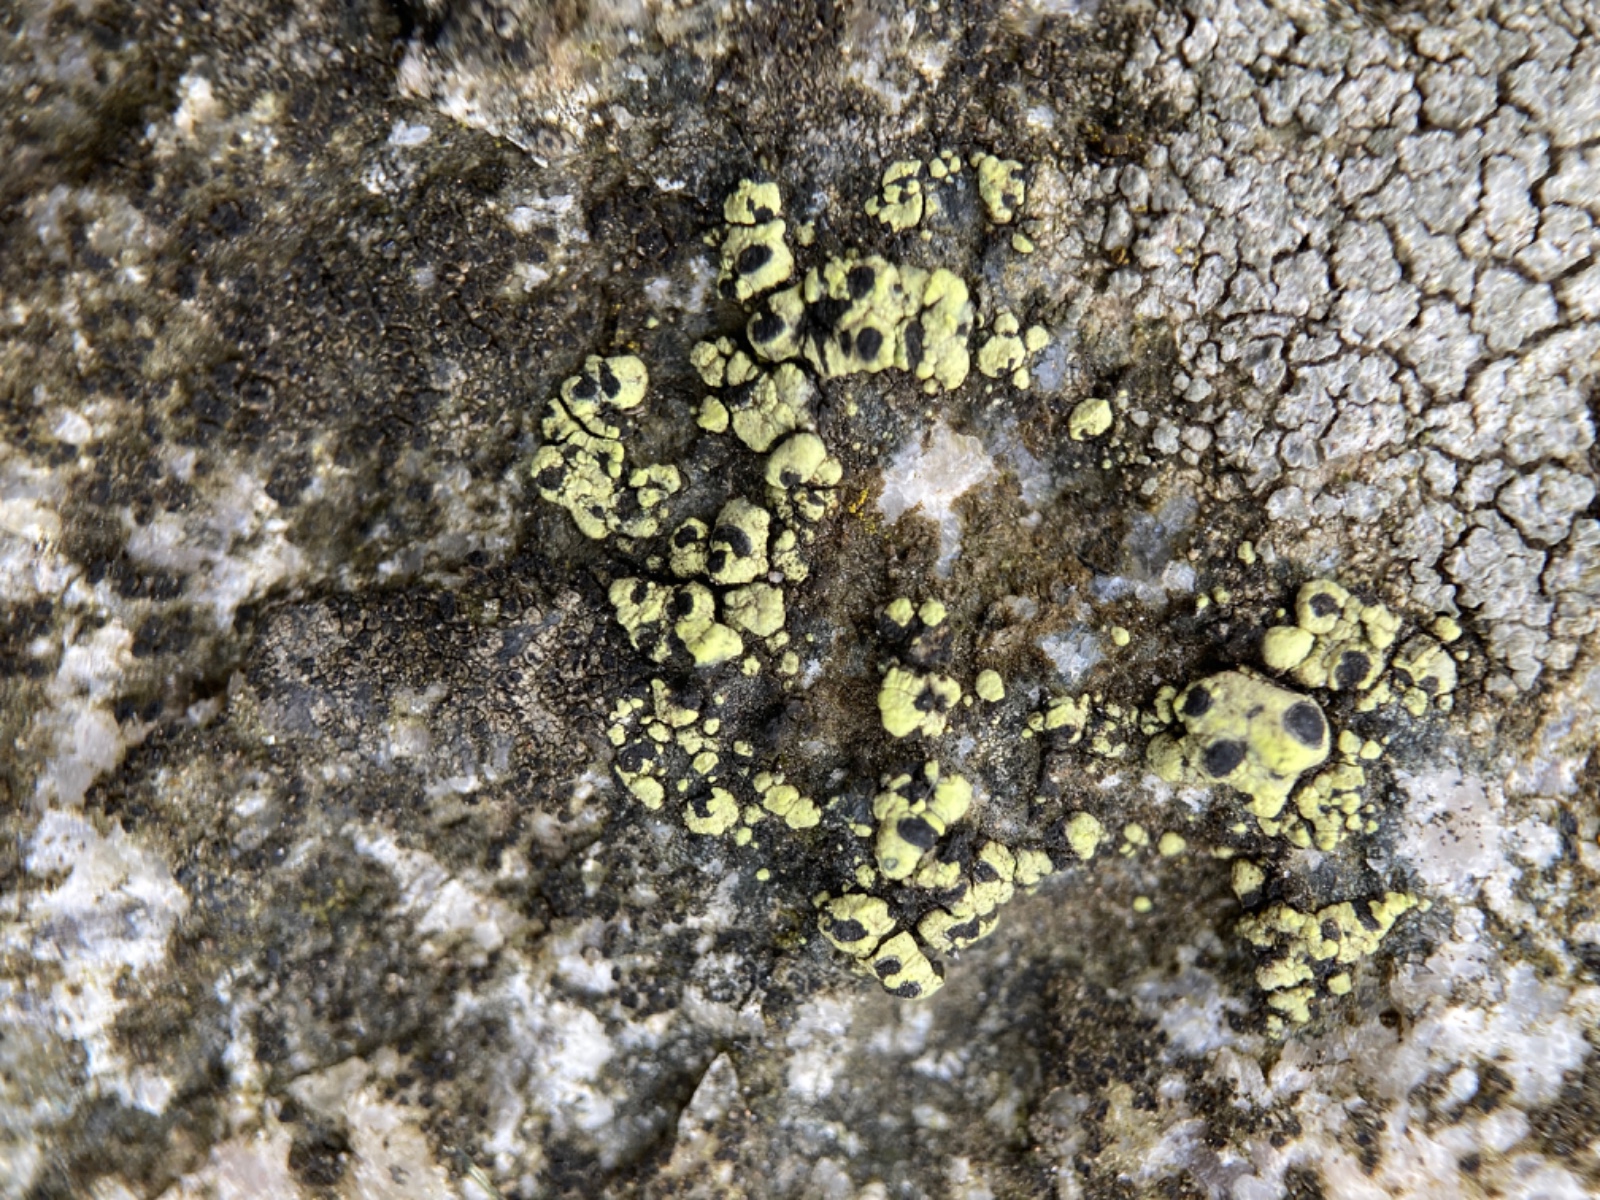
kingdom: Fungi
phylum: Ascomycota
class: Lecanoromycetes
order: Rhizocarpales
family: Rhizocarpaceae
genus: Rhizocarpon
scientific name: Rhizocarpon lecanorinum
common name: krave-landkortlav
